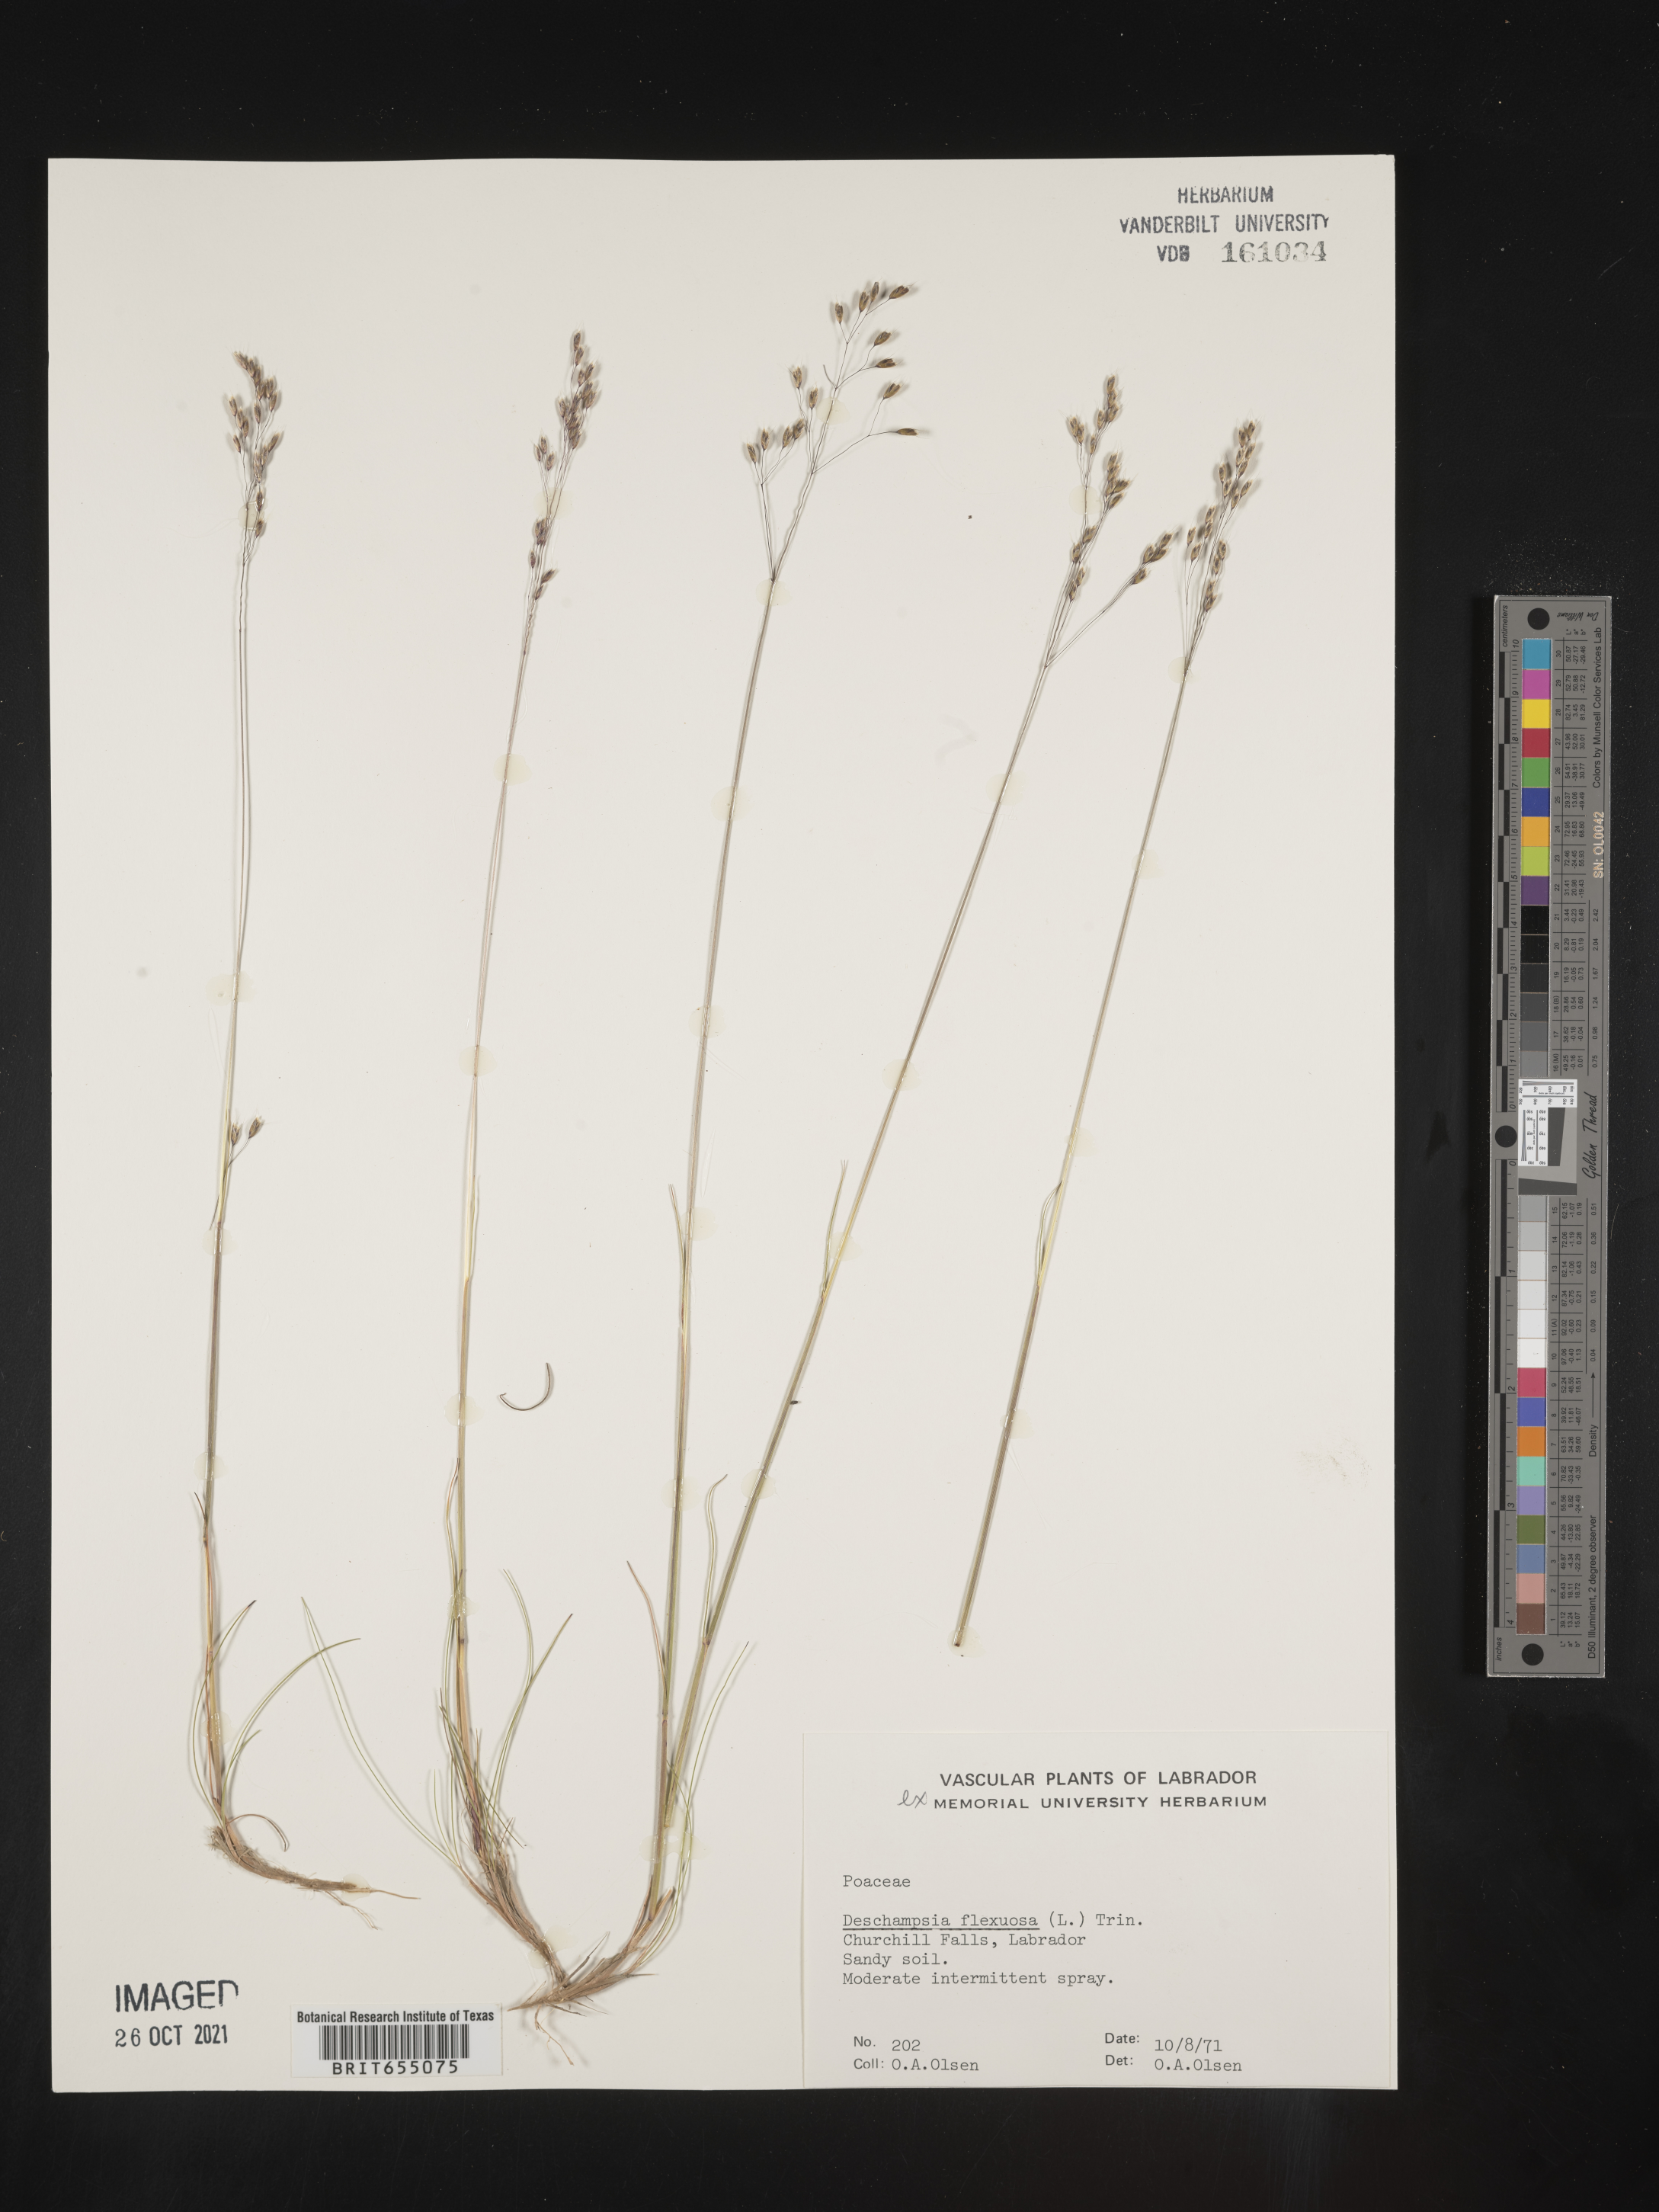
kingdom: Plantae
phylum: Tracheophyta
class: Liliopsida
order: Poales
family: Poaceae
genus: Deschampsia
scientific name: Deschampsia
